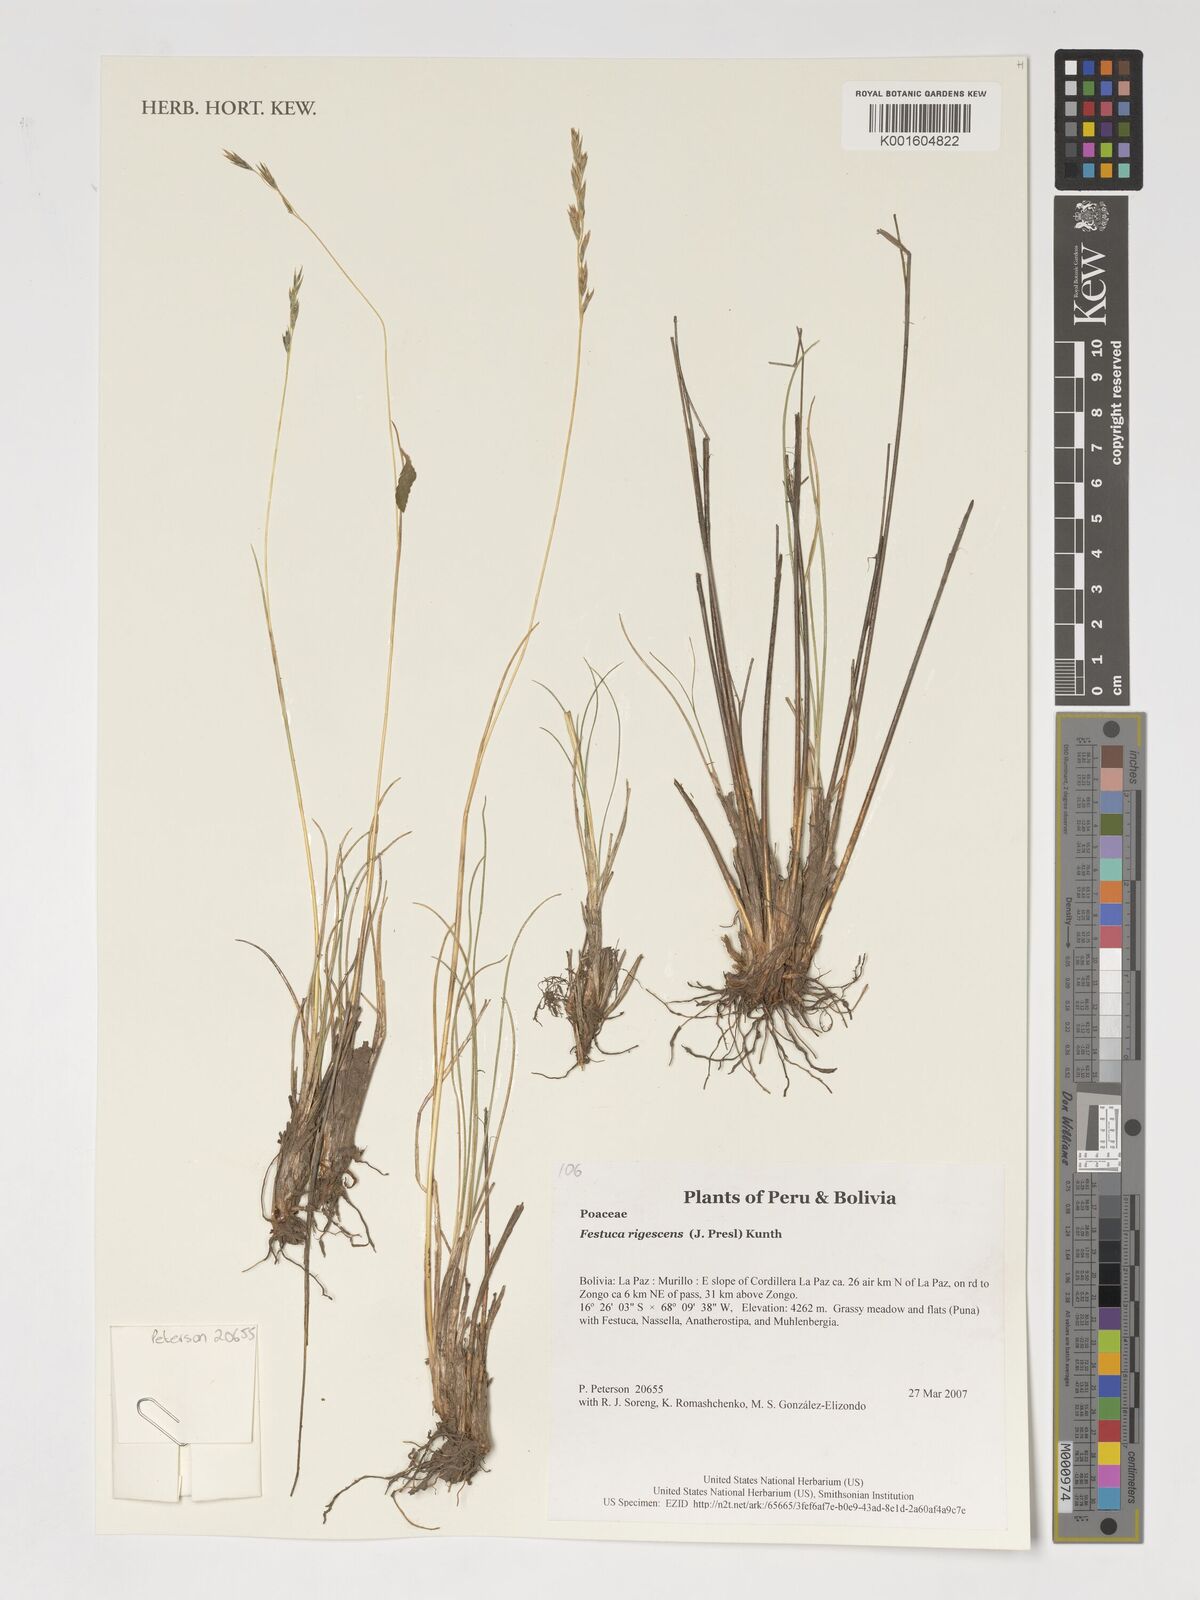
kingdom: Plantae
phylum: Tracheophyta
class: Liliopsida
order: Poales
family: Poaceae
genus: Festuca
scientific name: Festuca rigescens
